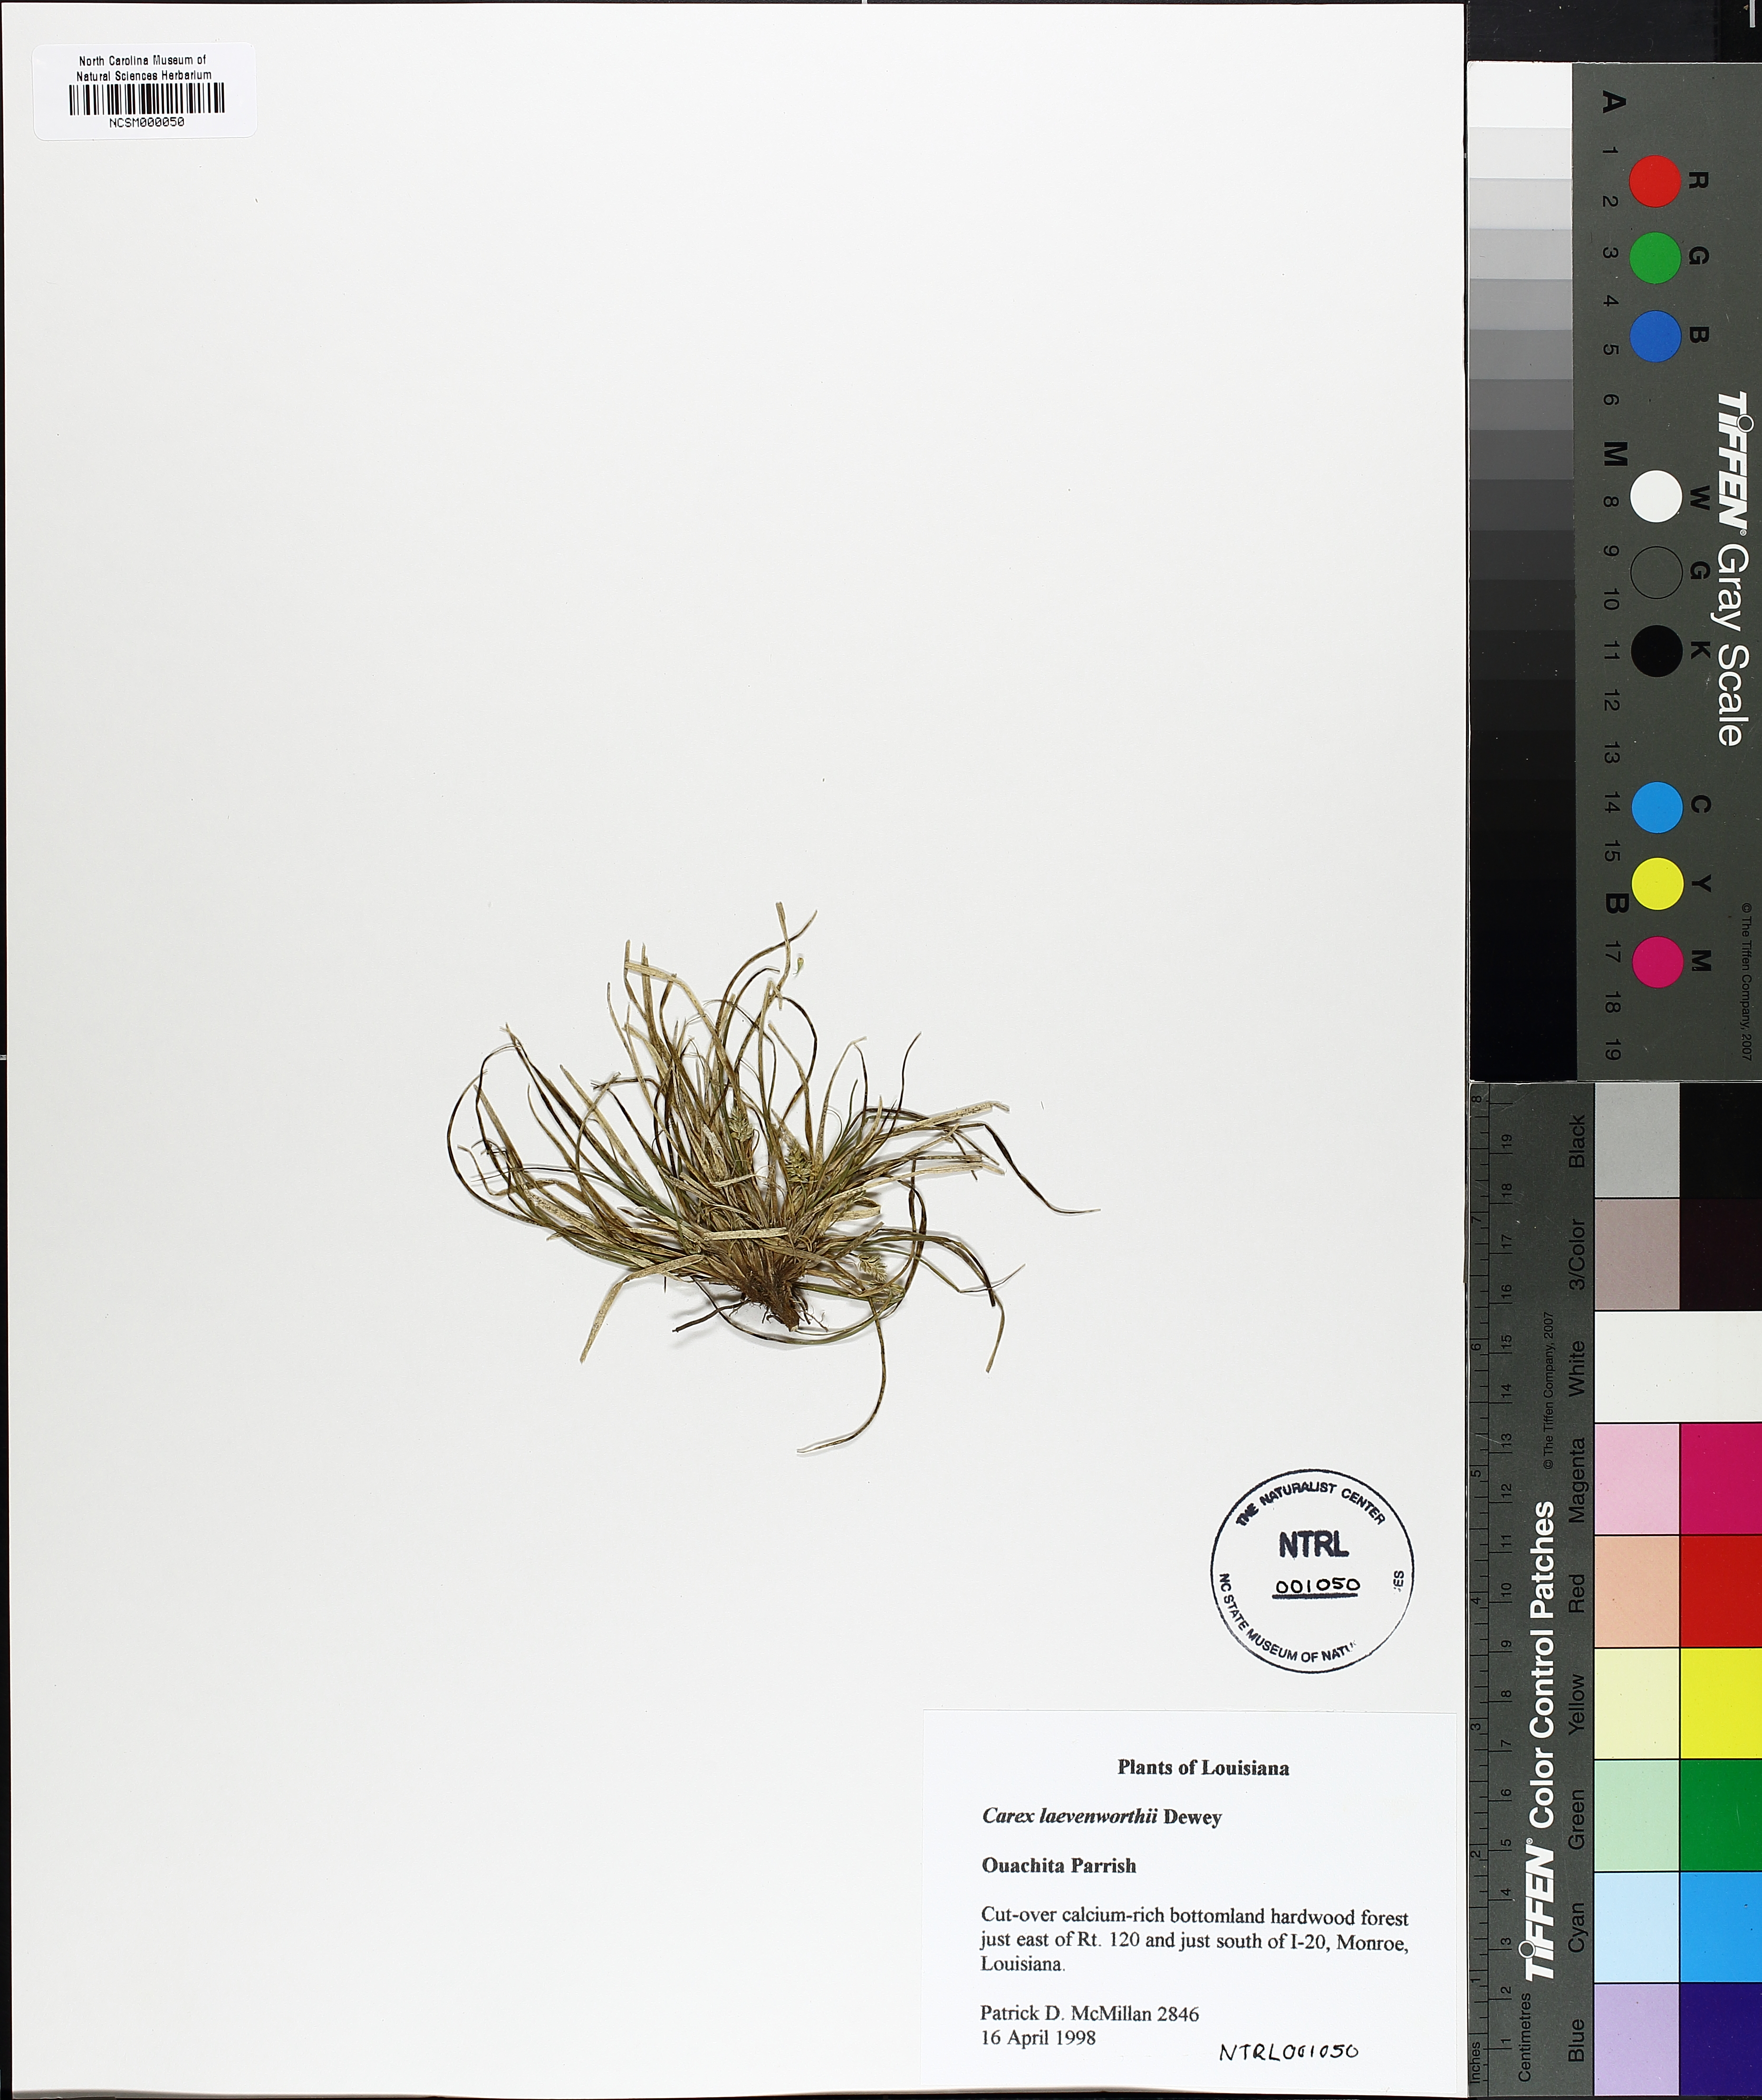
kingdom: Plantae
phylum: Tracheophyta
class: Liliopsida
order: Poales
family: Cyperaceae
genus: Carex
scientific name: Carex leavenworthii
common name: Leavenworth's bracted sedge
